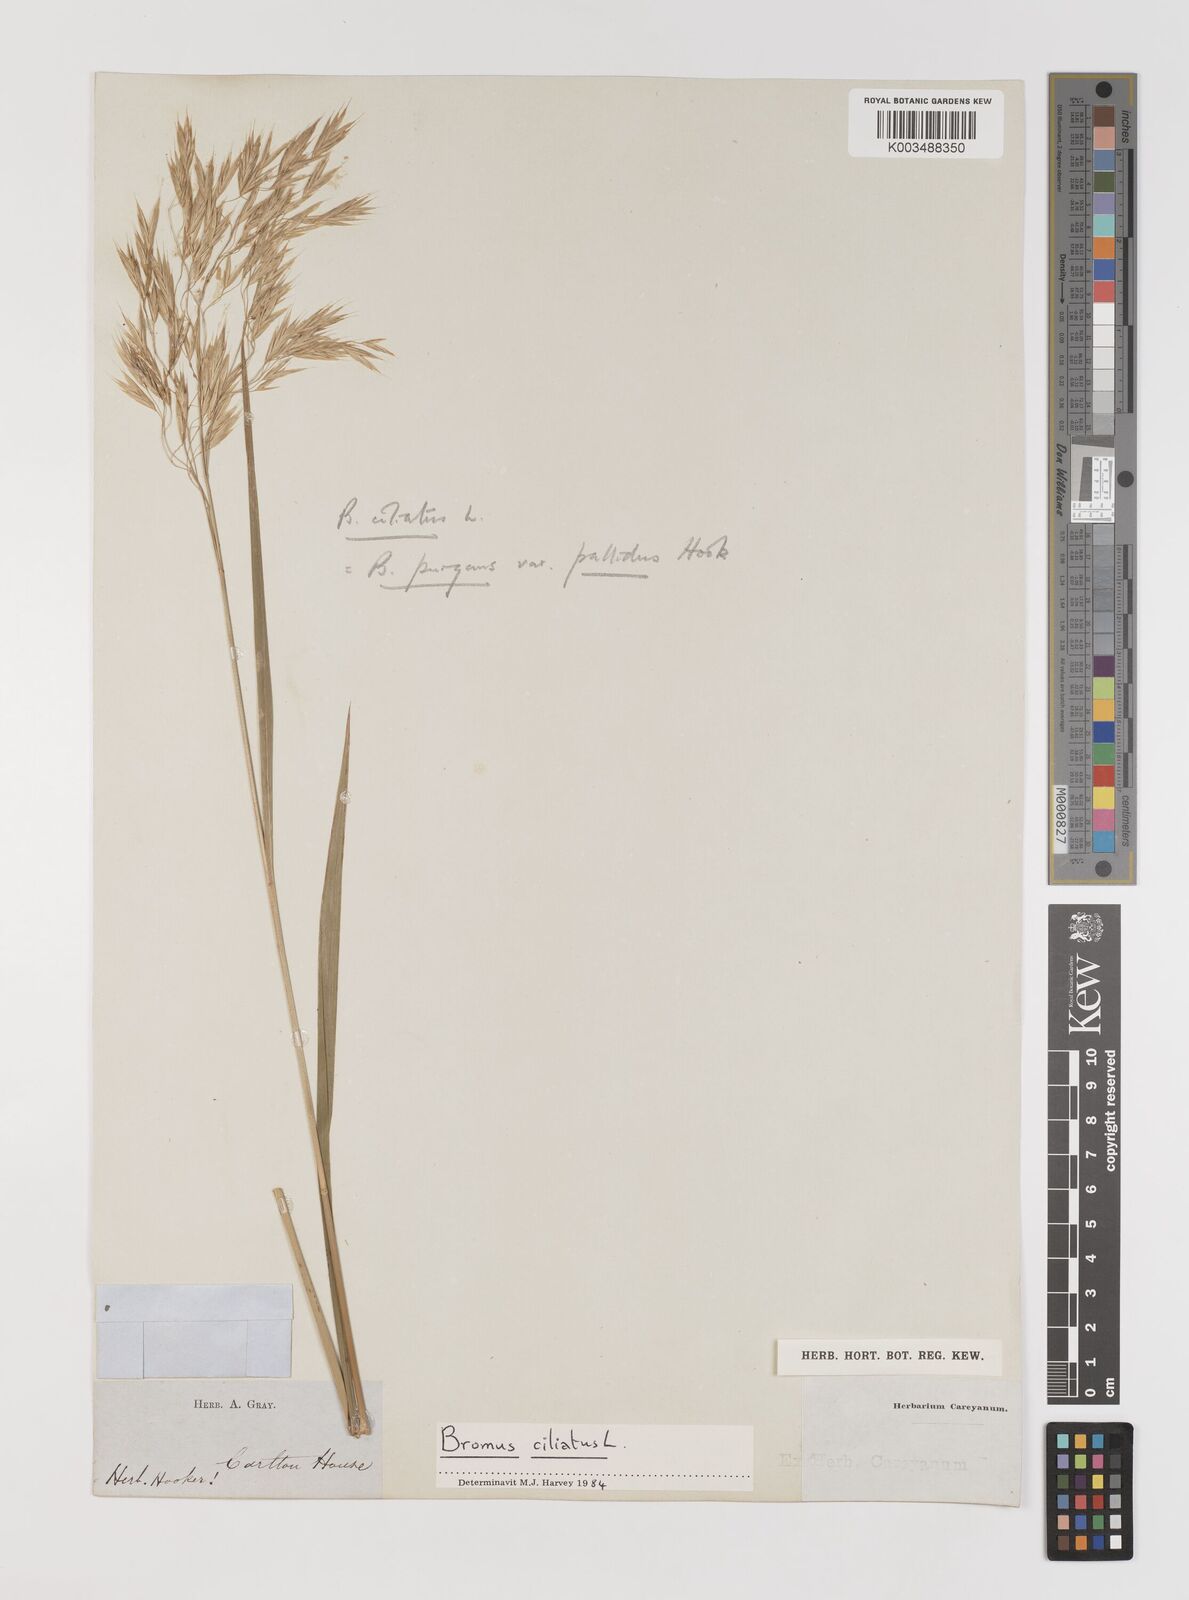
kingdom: Plantae
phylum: Tracheophyta
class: Liliopsida
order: Poales
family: Poaceae
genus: Bromus
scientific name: Bromus pubescens
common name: Hairy wood brome grass
